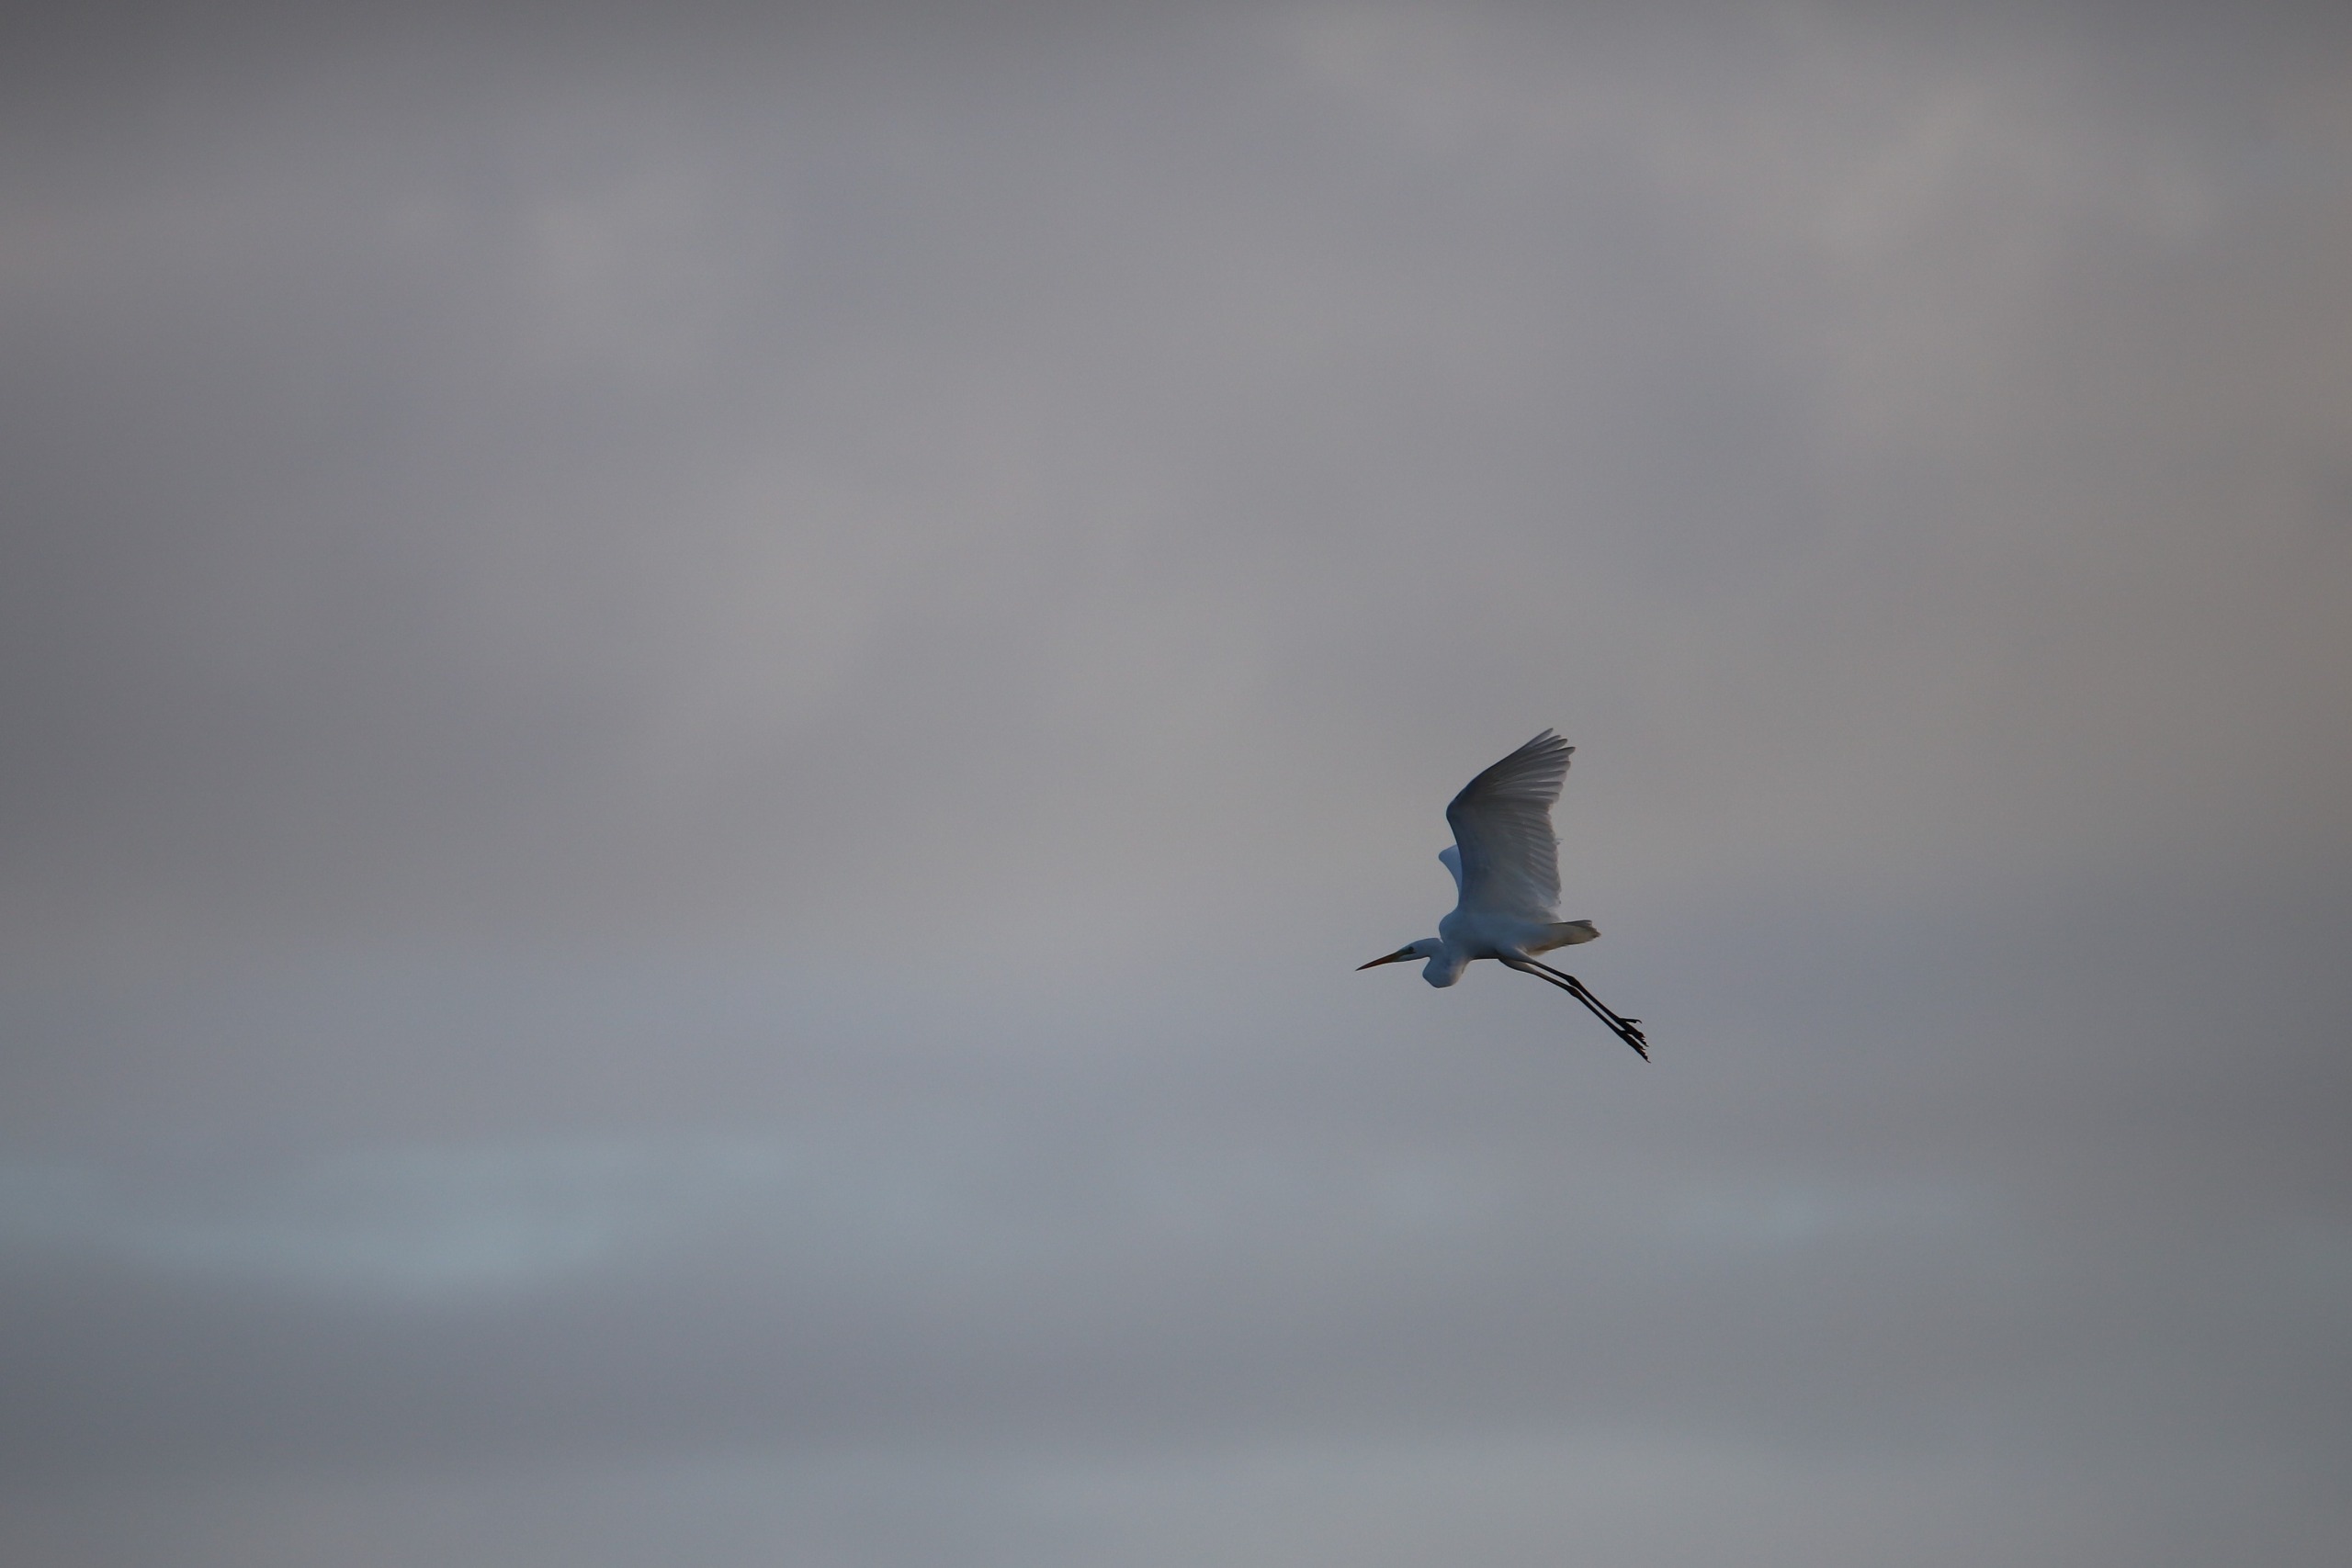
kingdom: Animalia
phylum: Chordata
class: Aves
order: Pelecaniformes
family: Ardeidae
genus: Ardea
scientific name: Ardea alba
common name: Sølvhejre
